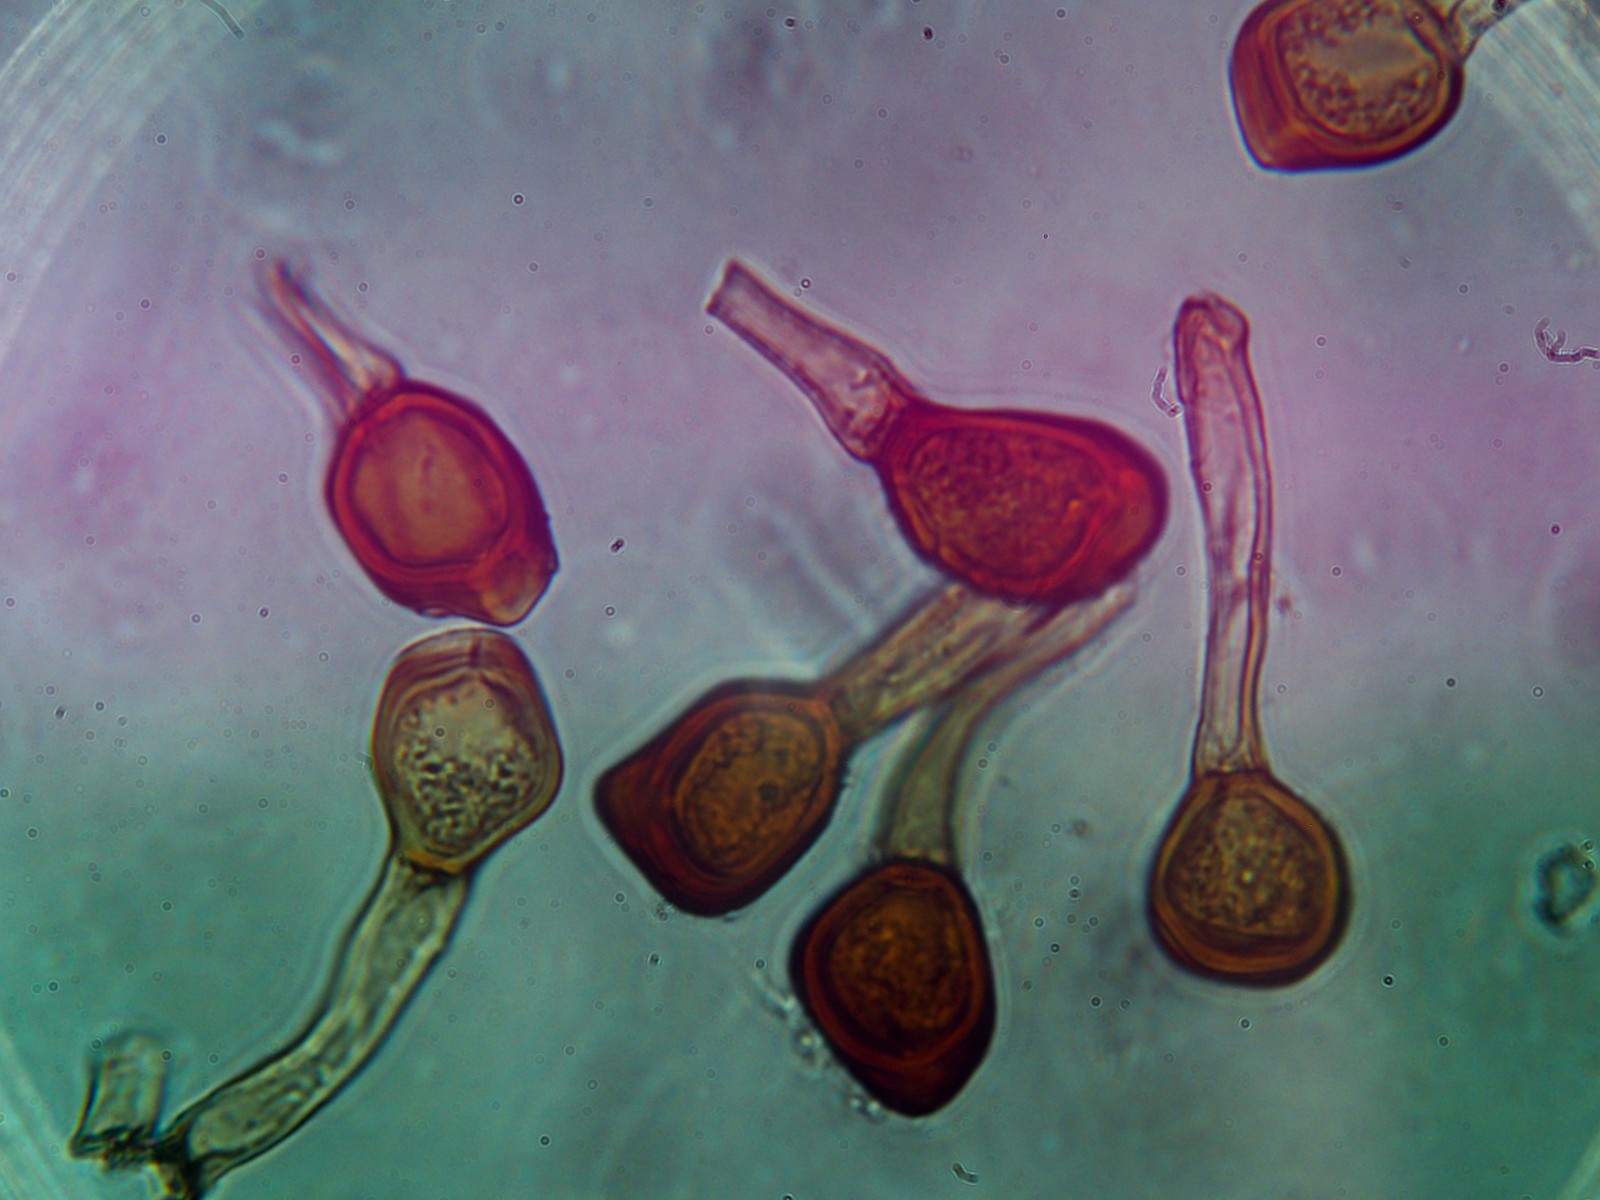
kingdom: Fungi
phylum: Basidiomycota
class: Pucciniomycetes
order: Pucciniales
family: Pucciniaceae
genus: Uromyces
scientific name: Uromyces ervi
